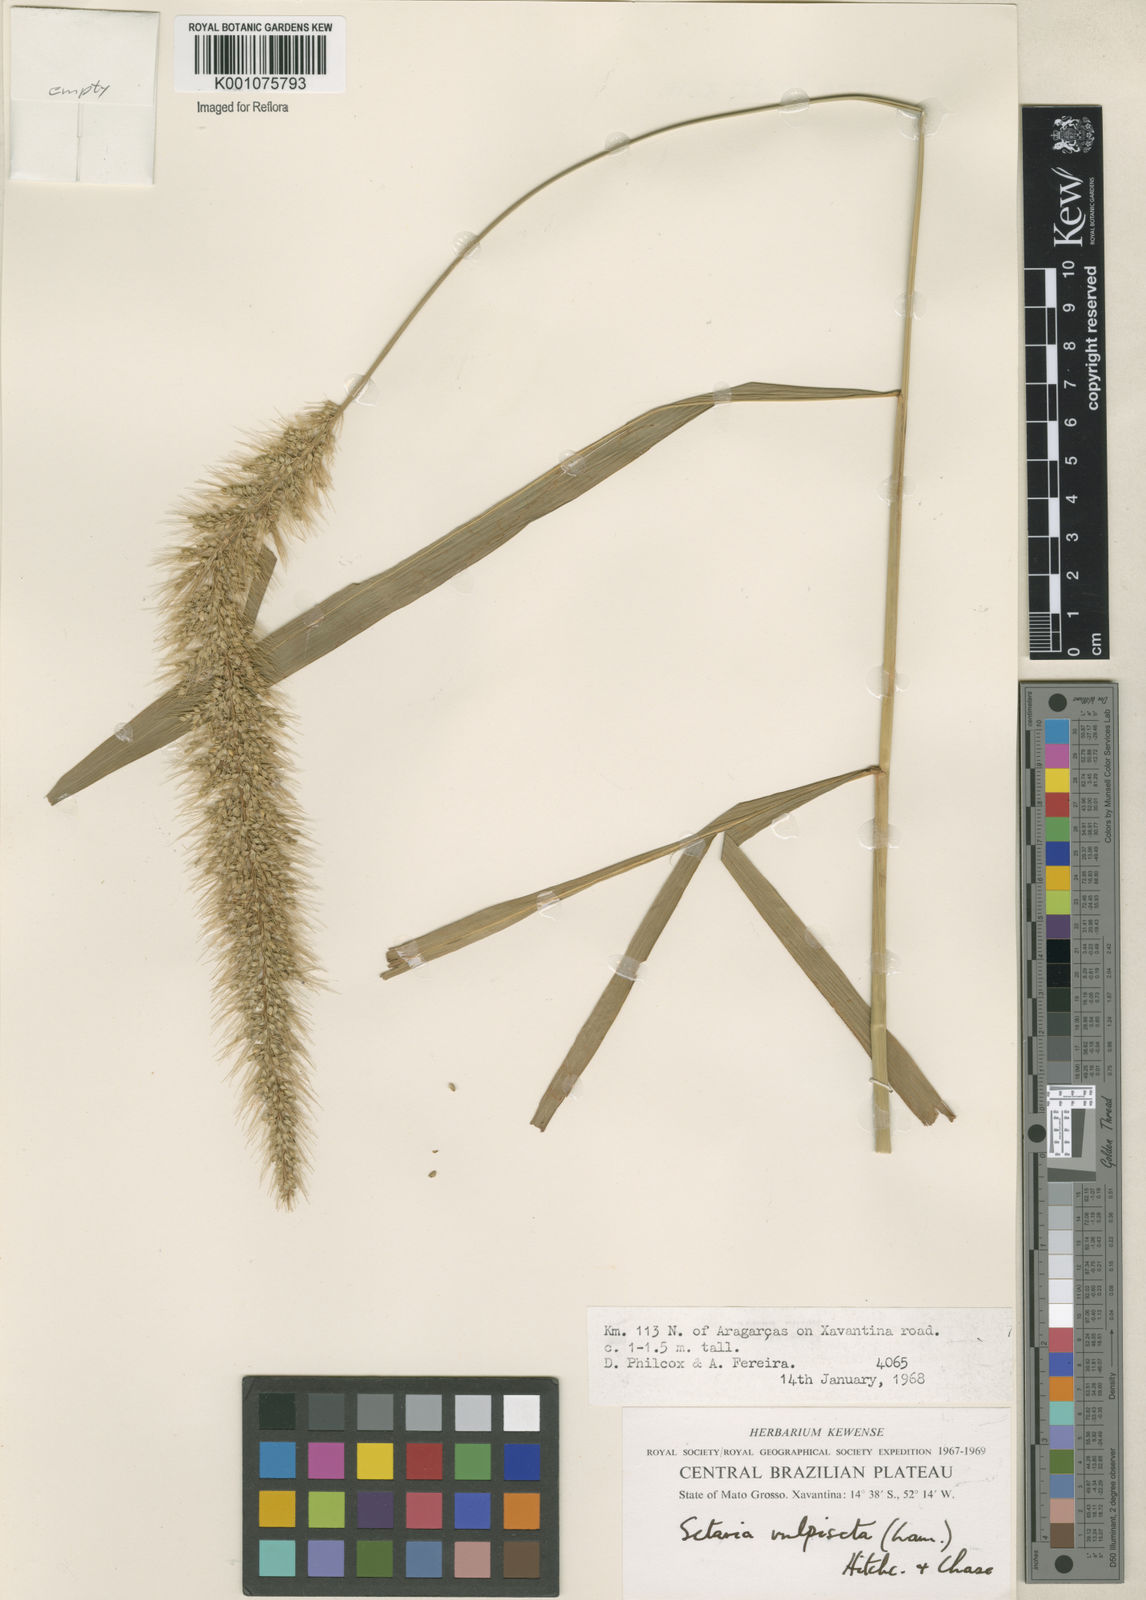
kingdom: Plantae
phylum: Tracheophyta
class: Liliopsida
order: Poales
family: Poaceae
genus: Setaria
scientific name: Setaria vulpiseta
